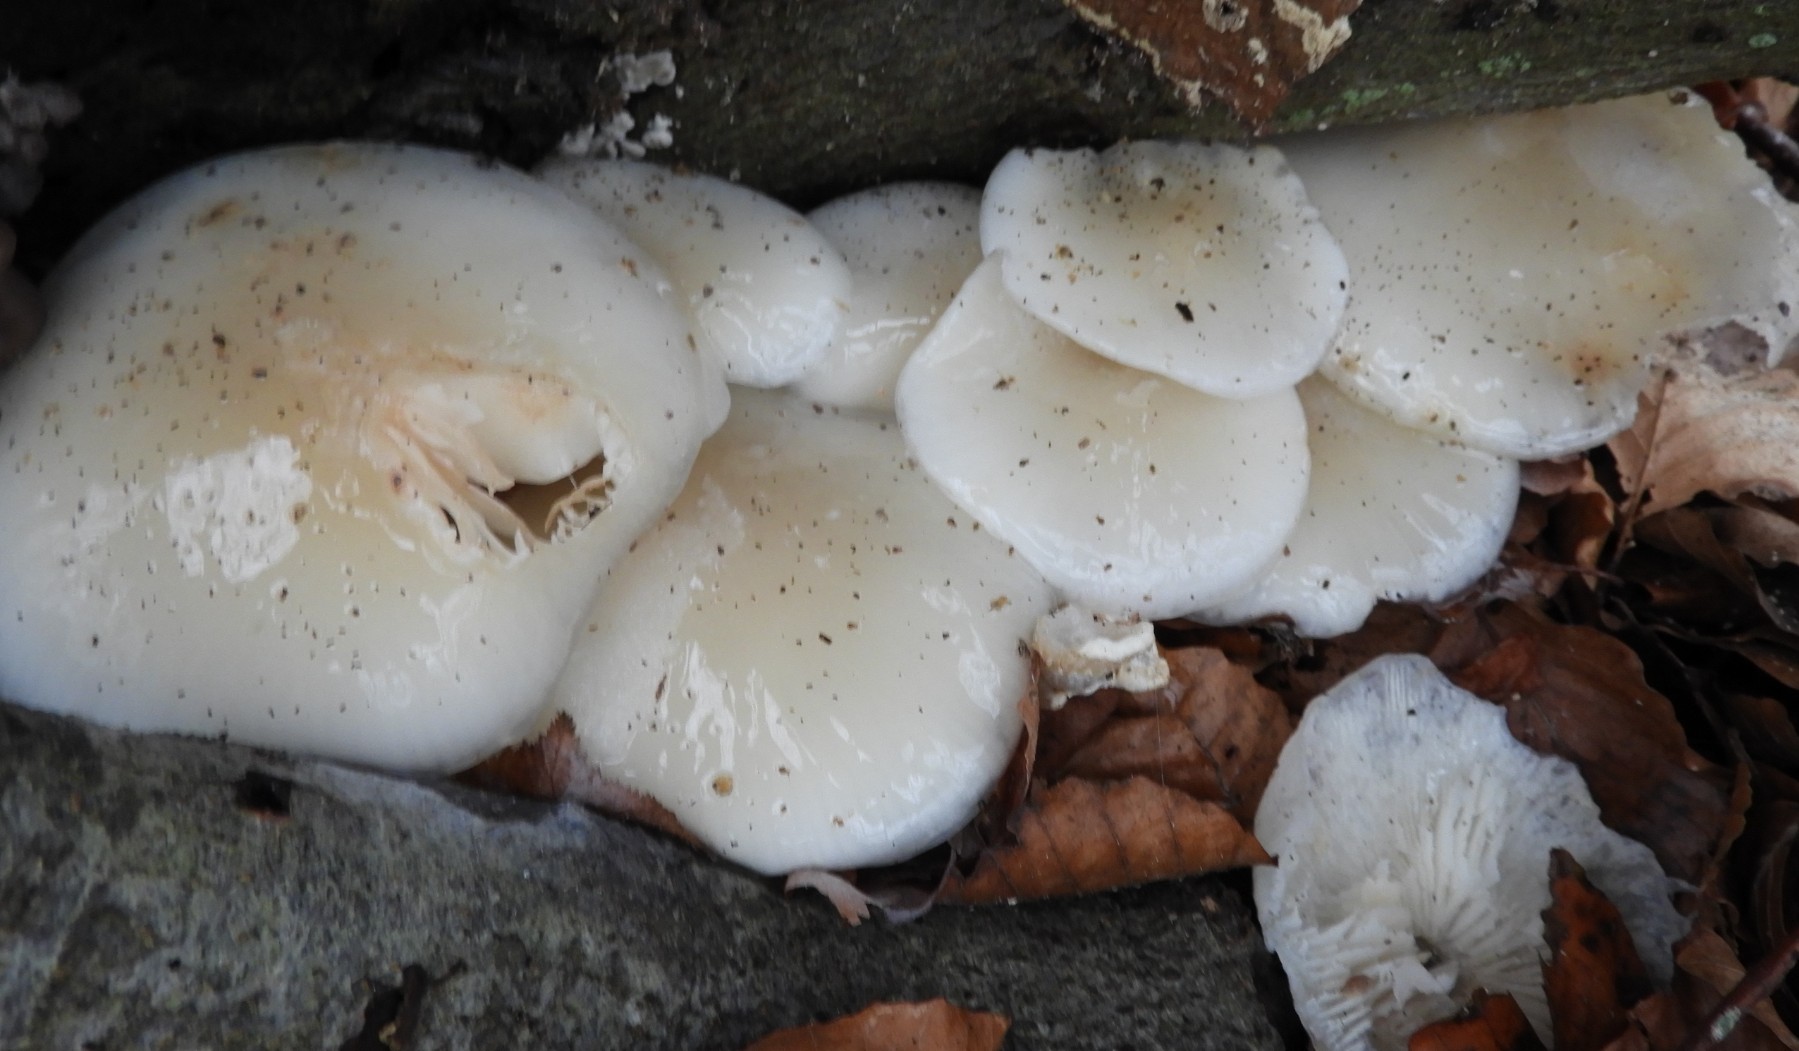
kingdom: Fungi
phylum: Basidiomycota
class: Agaricomycetes
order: Agaricales
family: Physalacriaceae
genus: Mucidula
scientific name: Mucidula mucida
